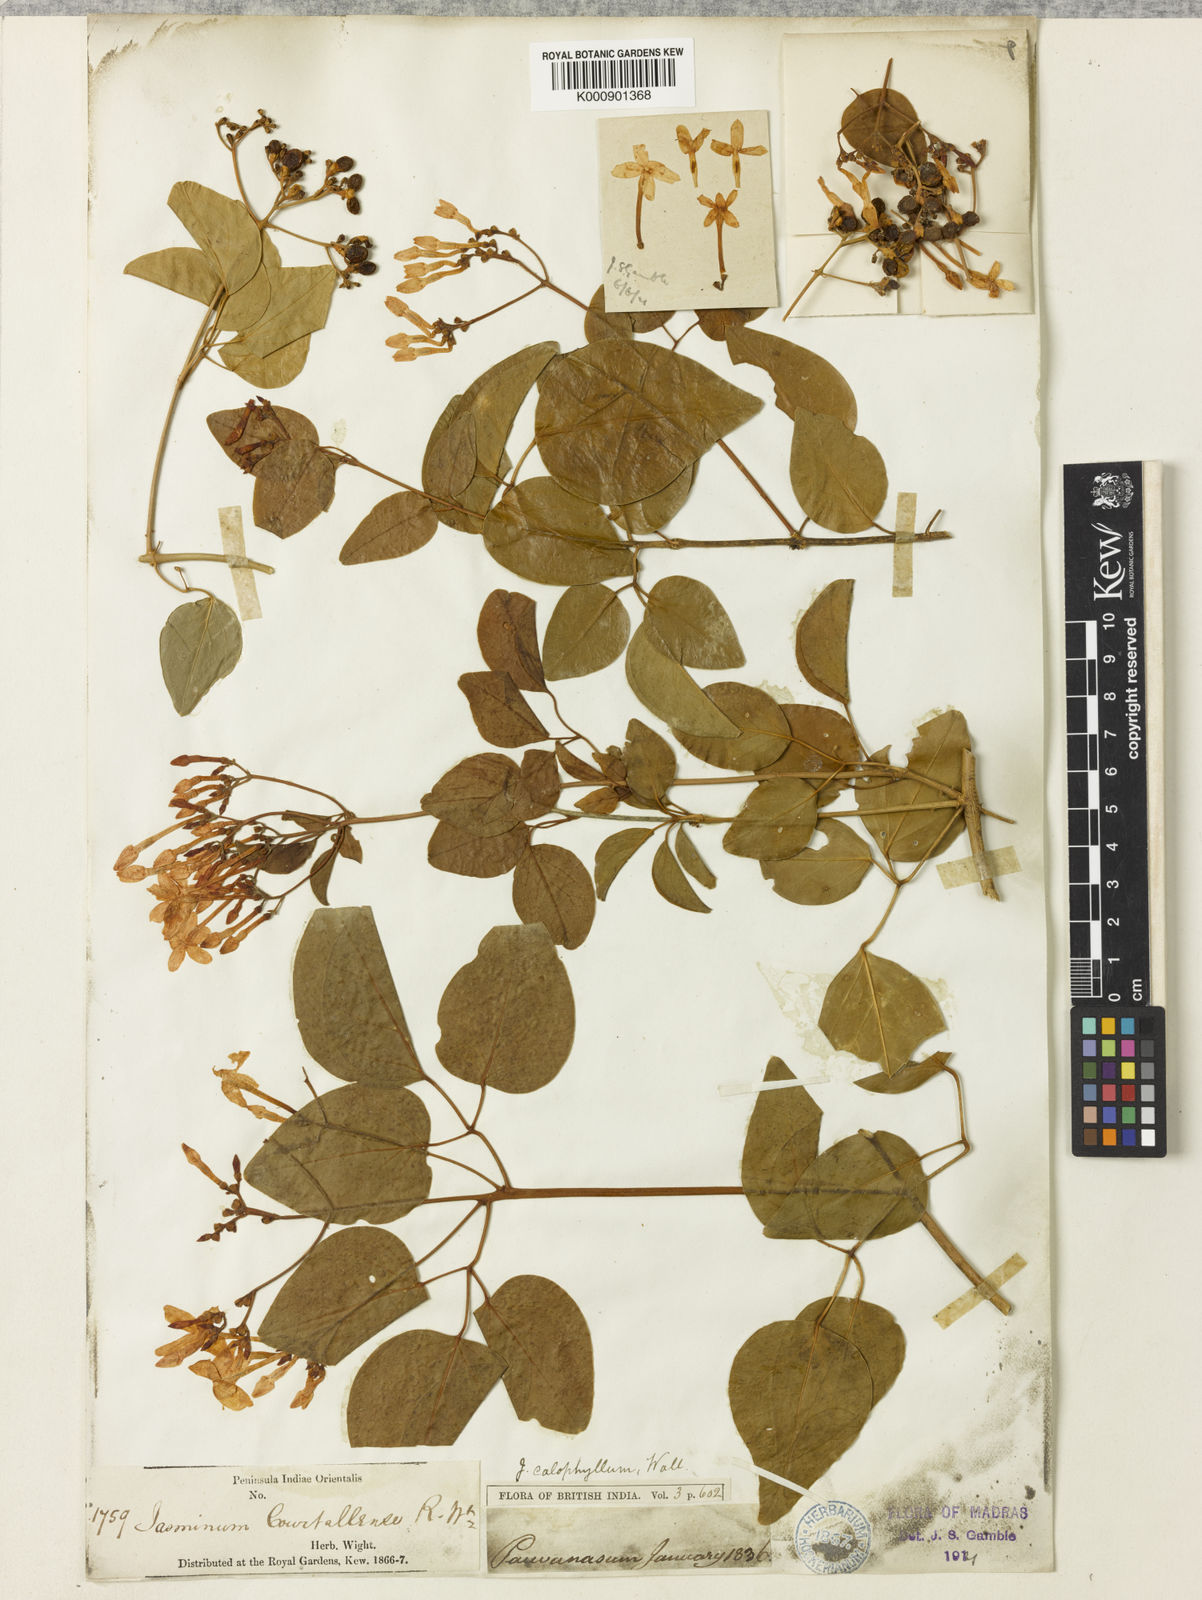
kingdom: Plantae
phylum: Tracheophyta
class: Magnoliopsida
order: Lamiales
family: Oleaceae
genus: Jasminum
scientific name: Jasminum
